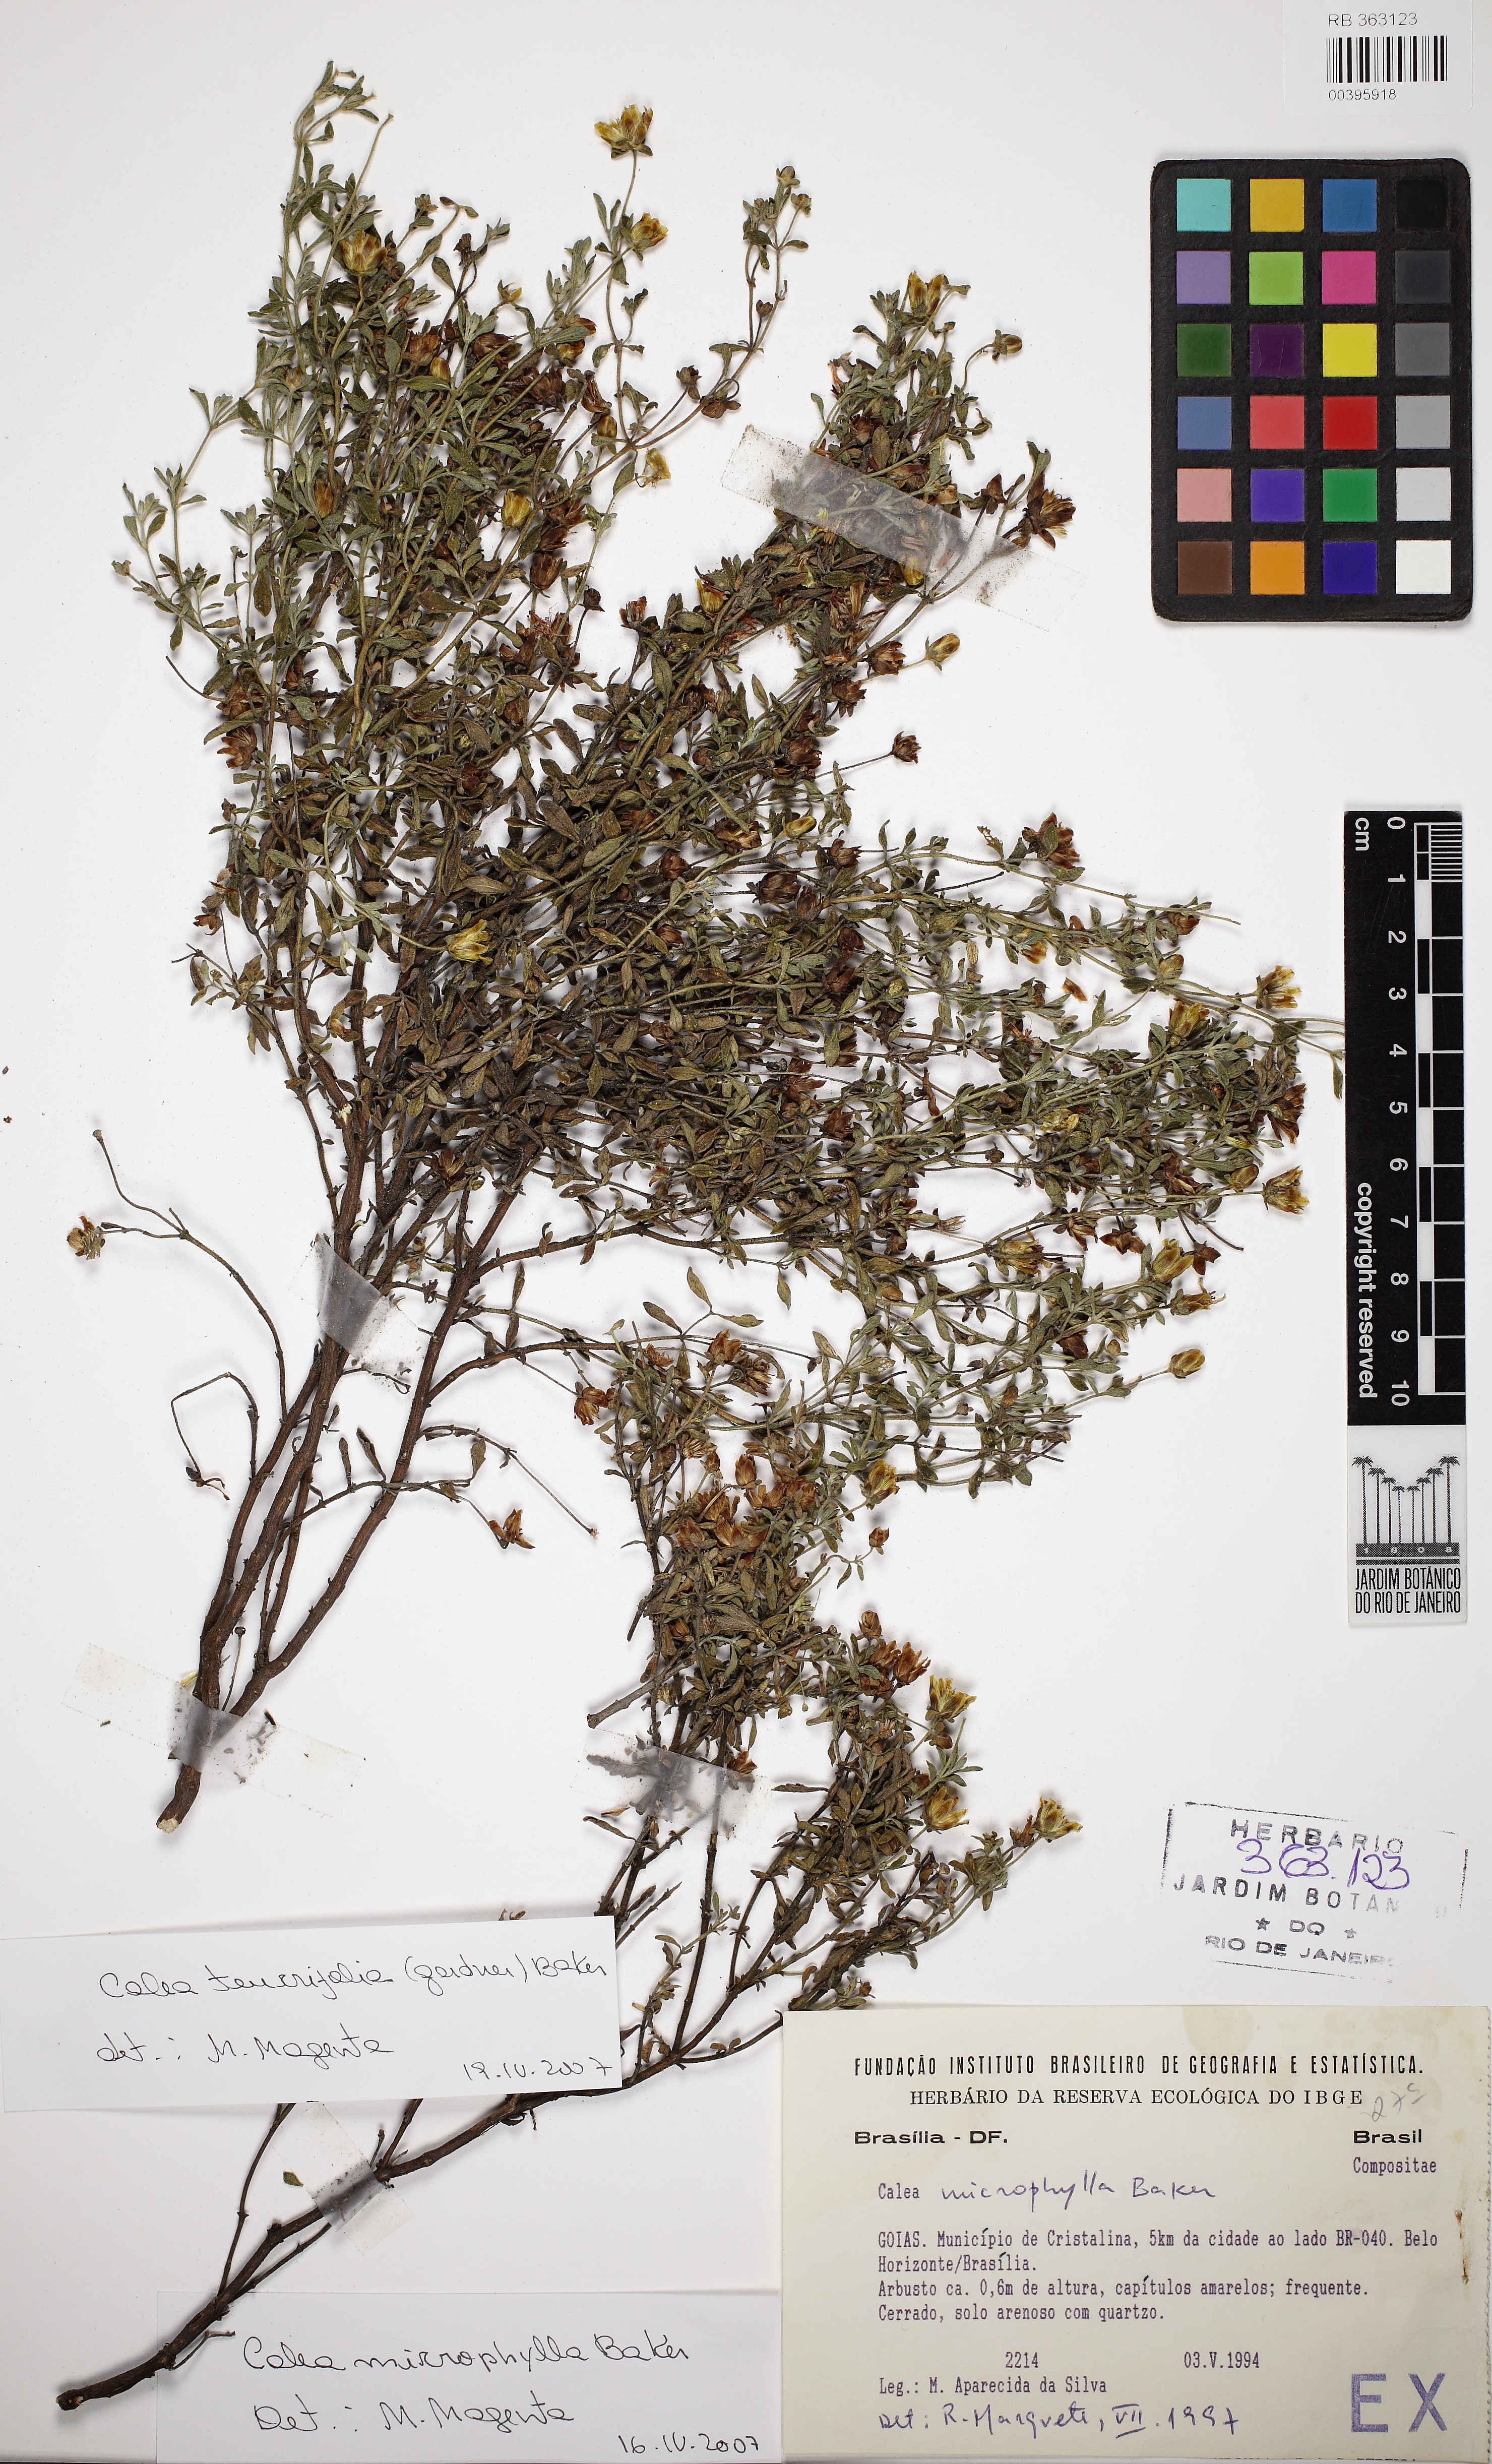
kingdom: Plantae
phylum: Tracheophyta
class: Magnoliopsida
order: Asterales
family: Asteraceae
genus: Calea
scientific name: Calea teucriifolia
